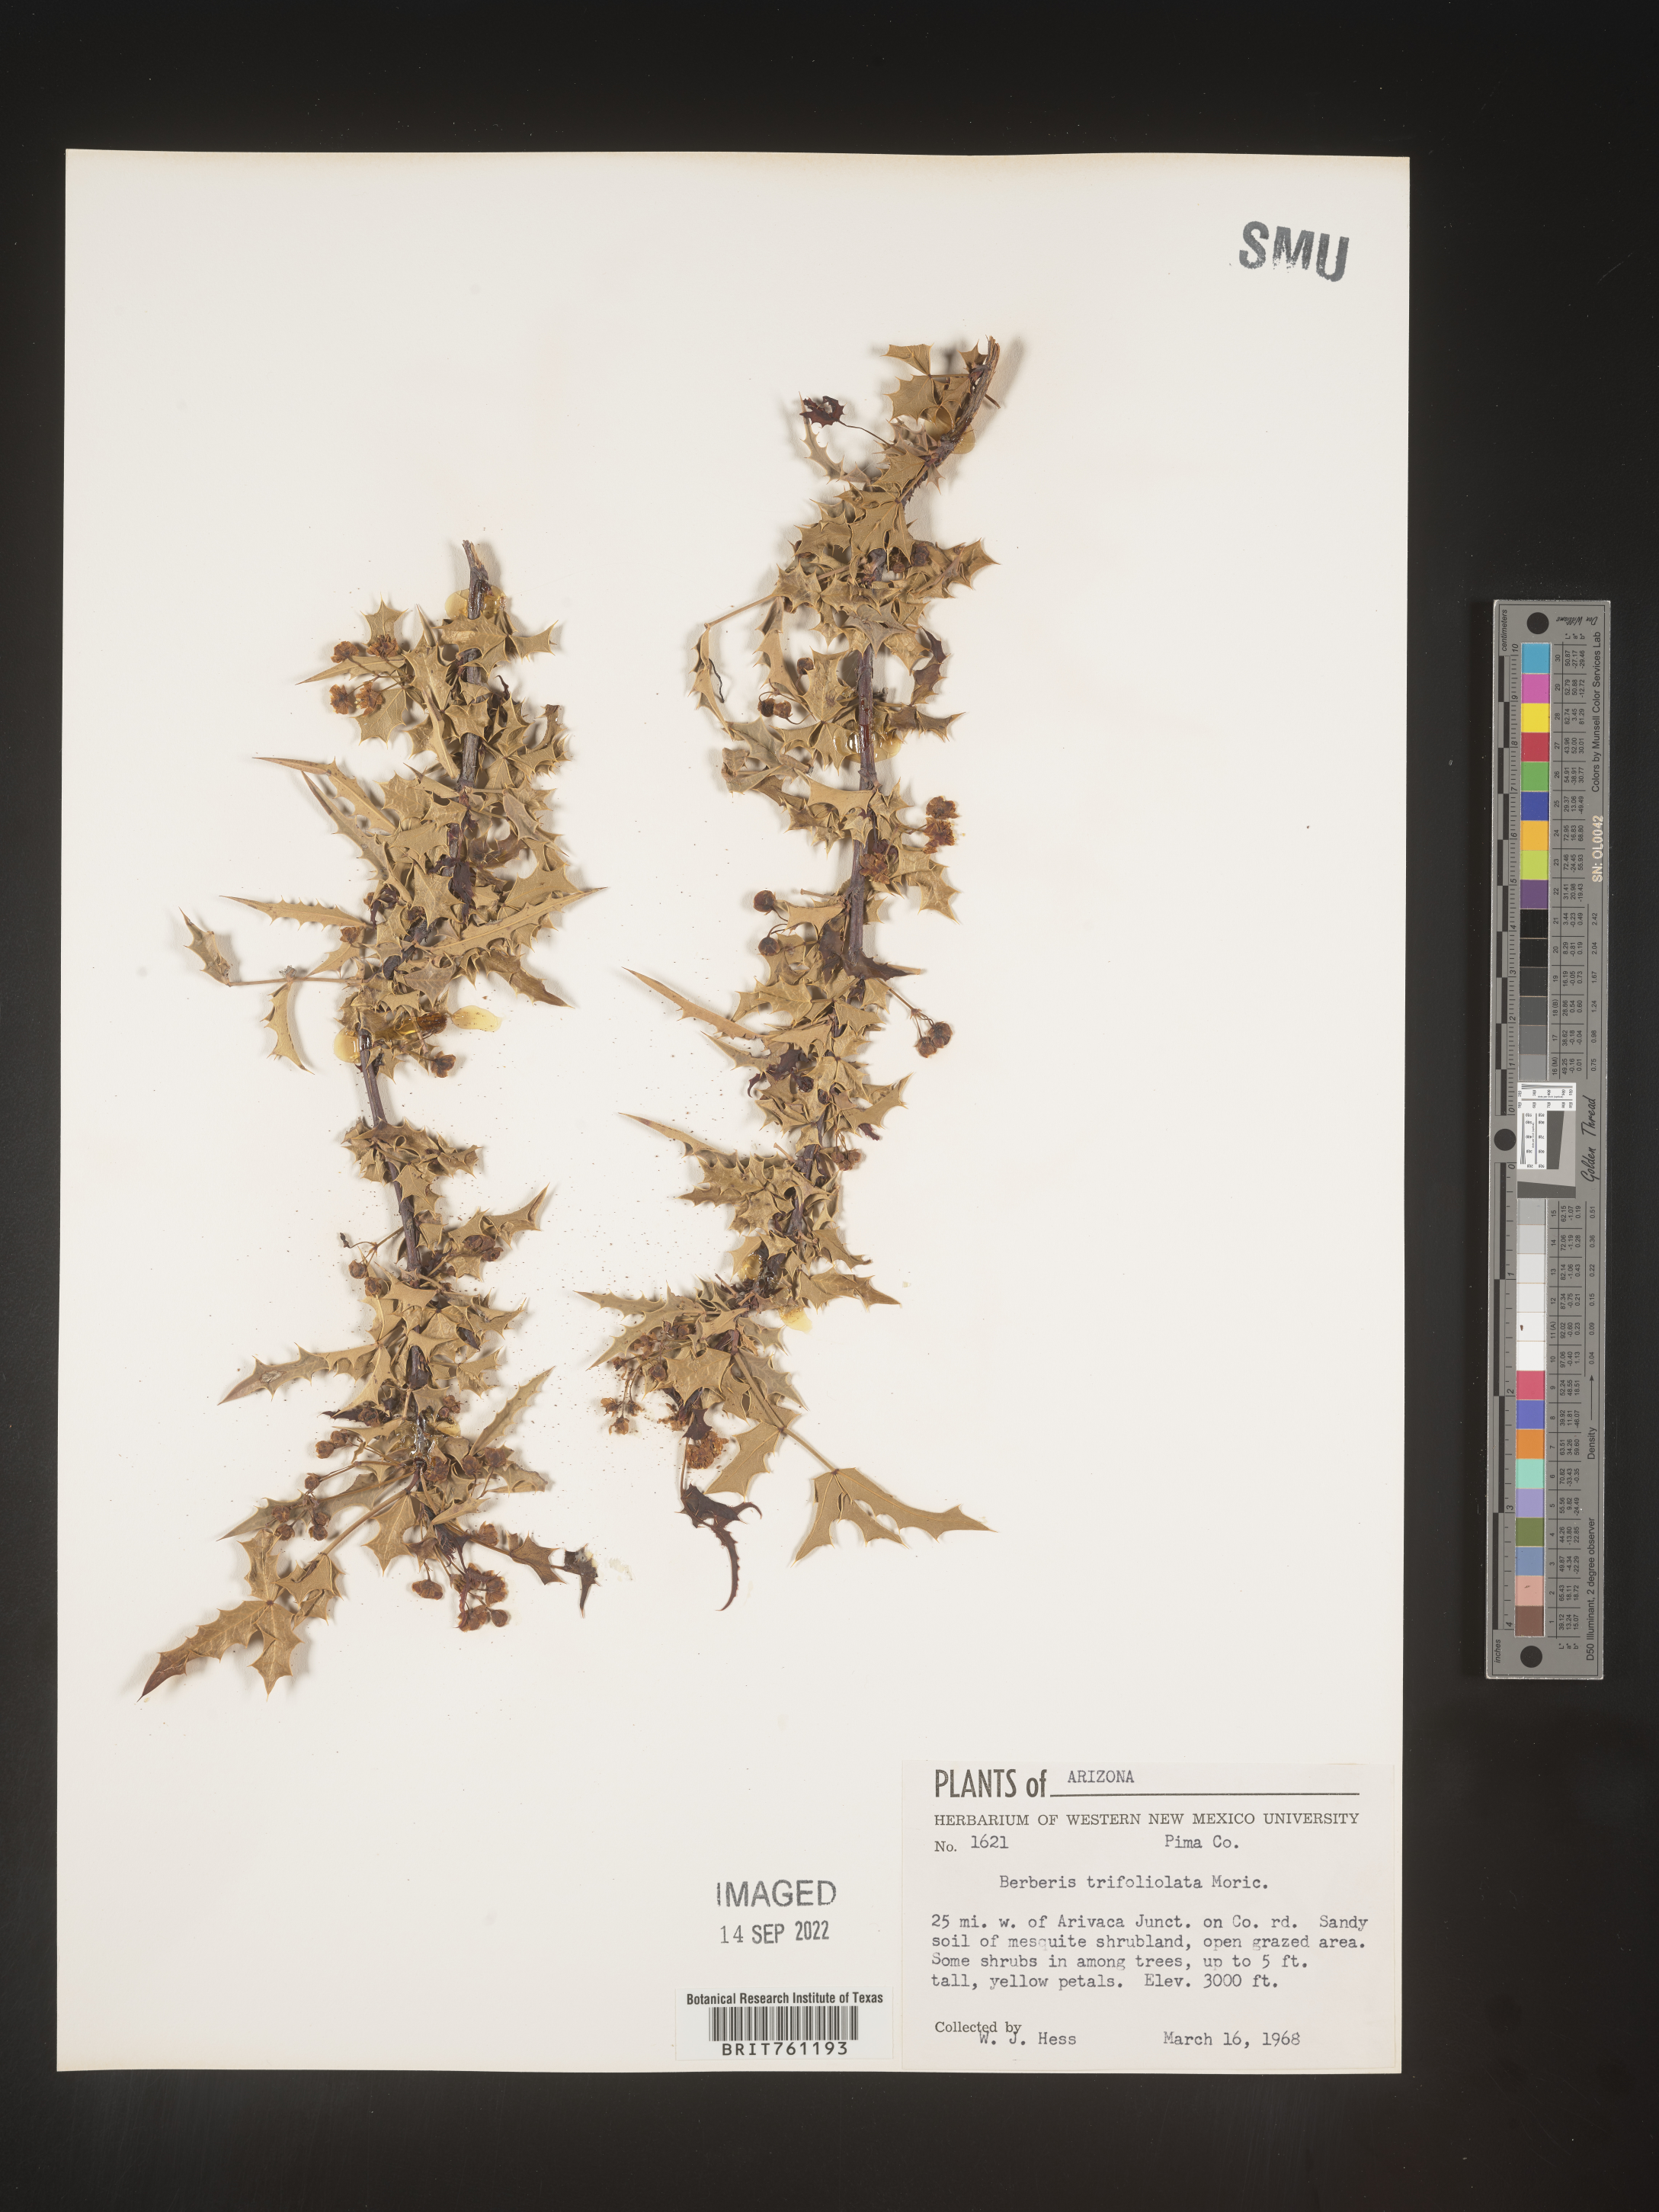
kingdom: Plantae
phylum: Tracheophyta
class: Magnoliopsida
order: Ranunculales
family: Berberidaceae
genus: Mahonia
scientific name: Mahonia
